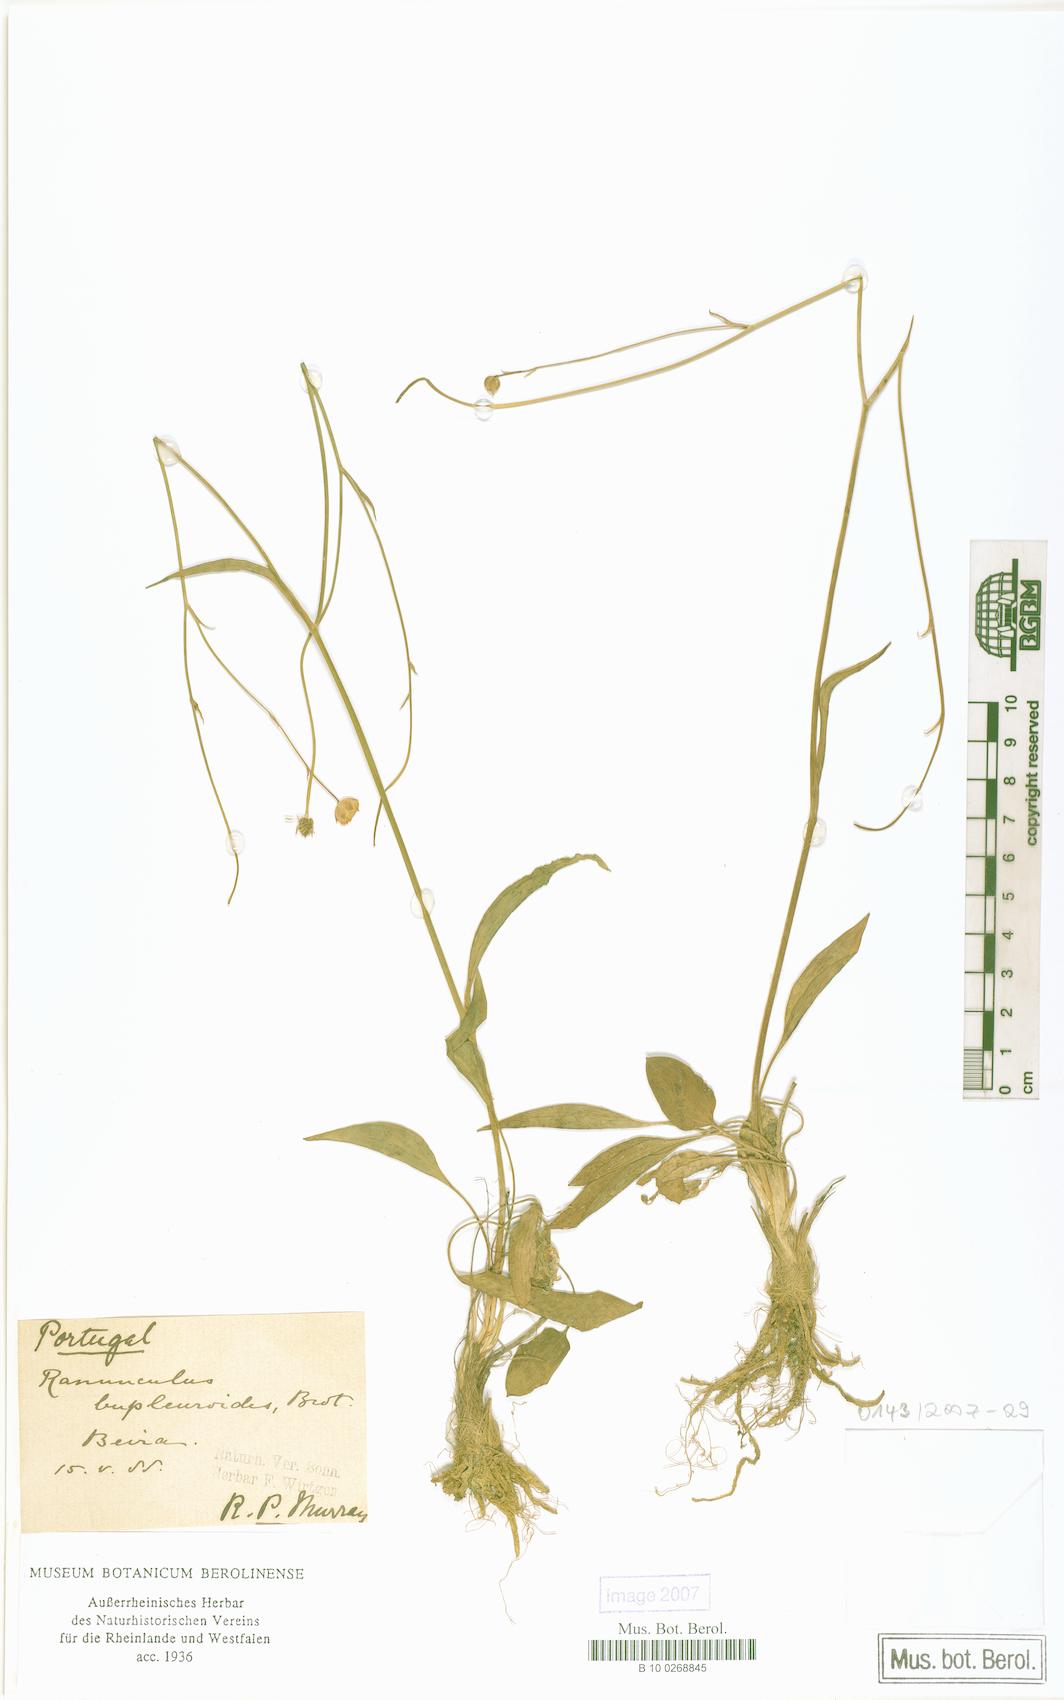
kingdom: Plantae
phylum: Tracheophyta
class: Magnoliopsida
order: Ranunculales
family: Ranunculaceae
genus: Ranunculus
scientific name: Ranunculus bupleuroides
